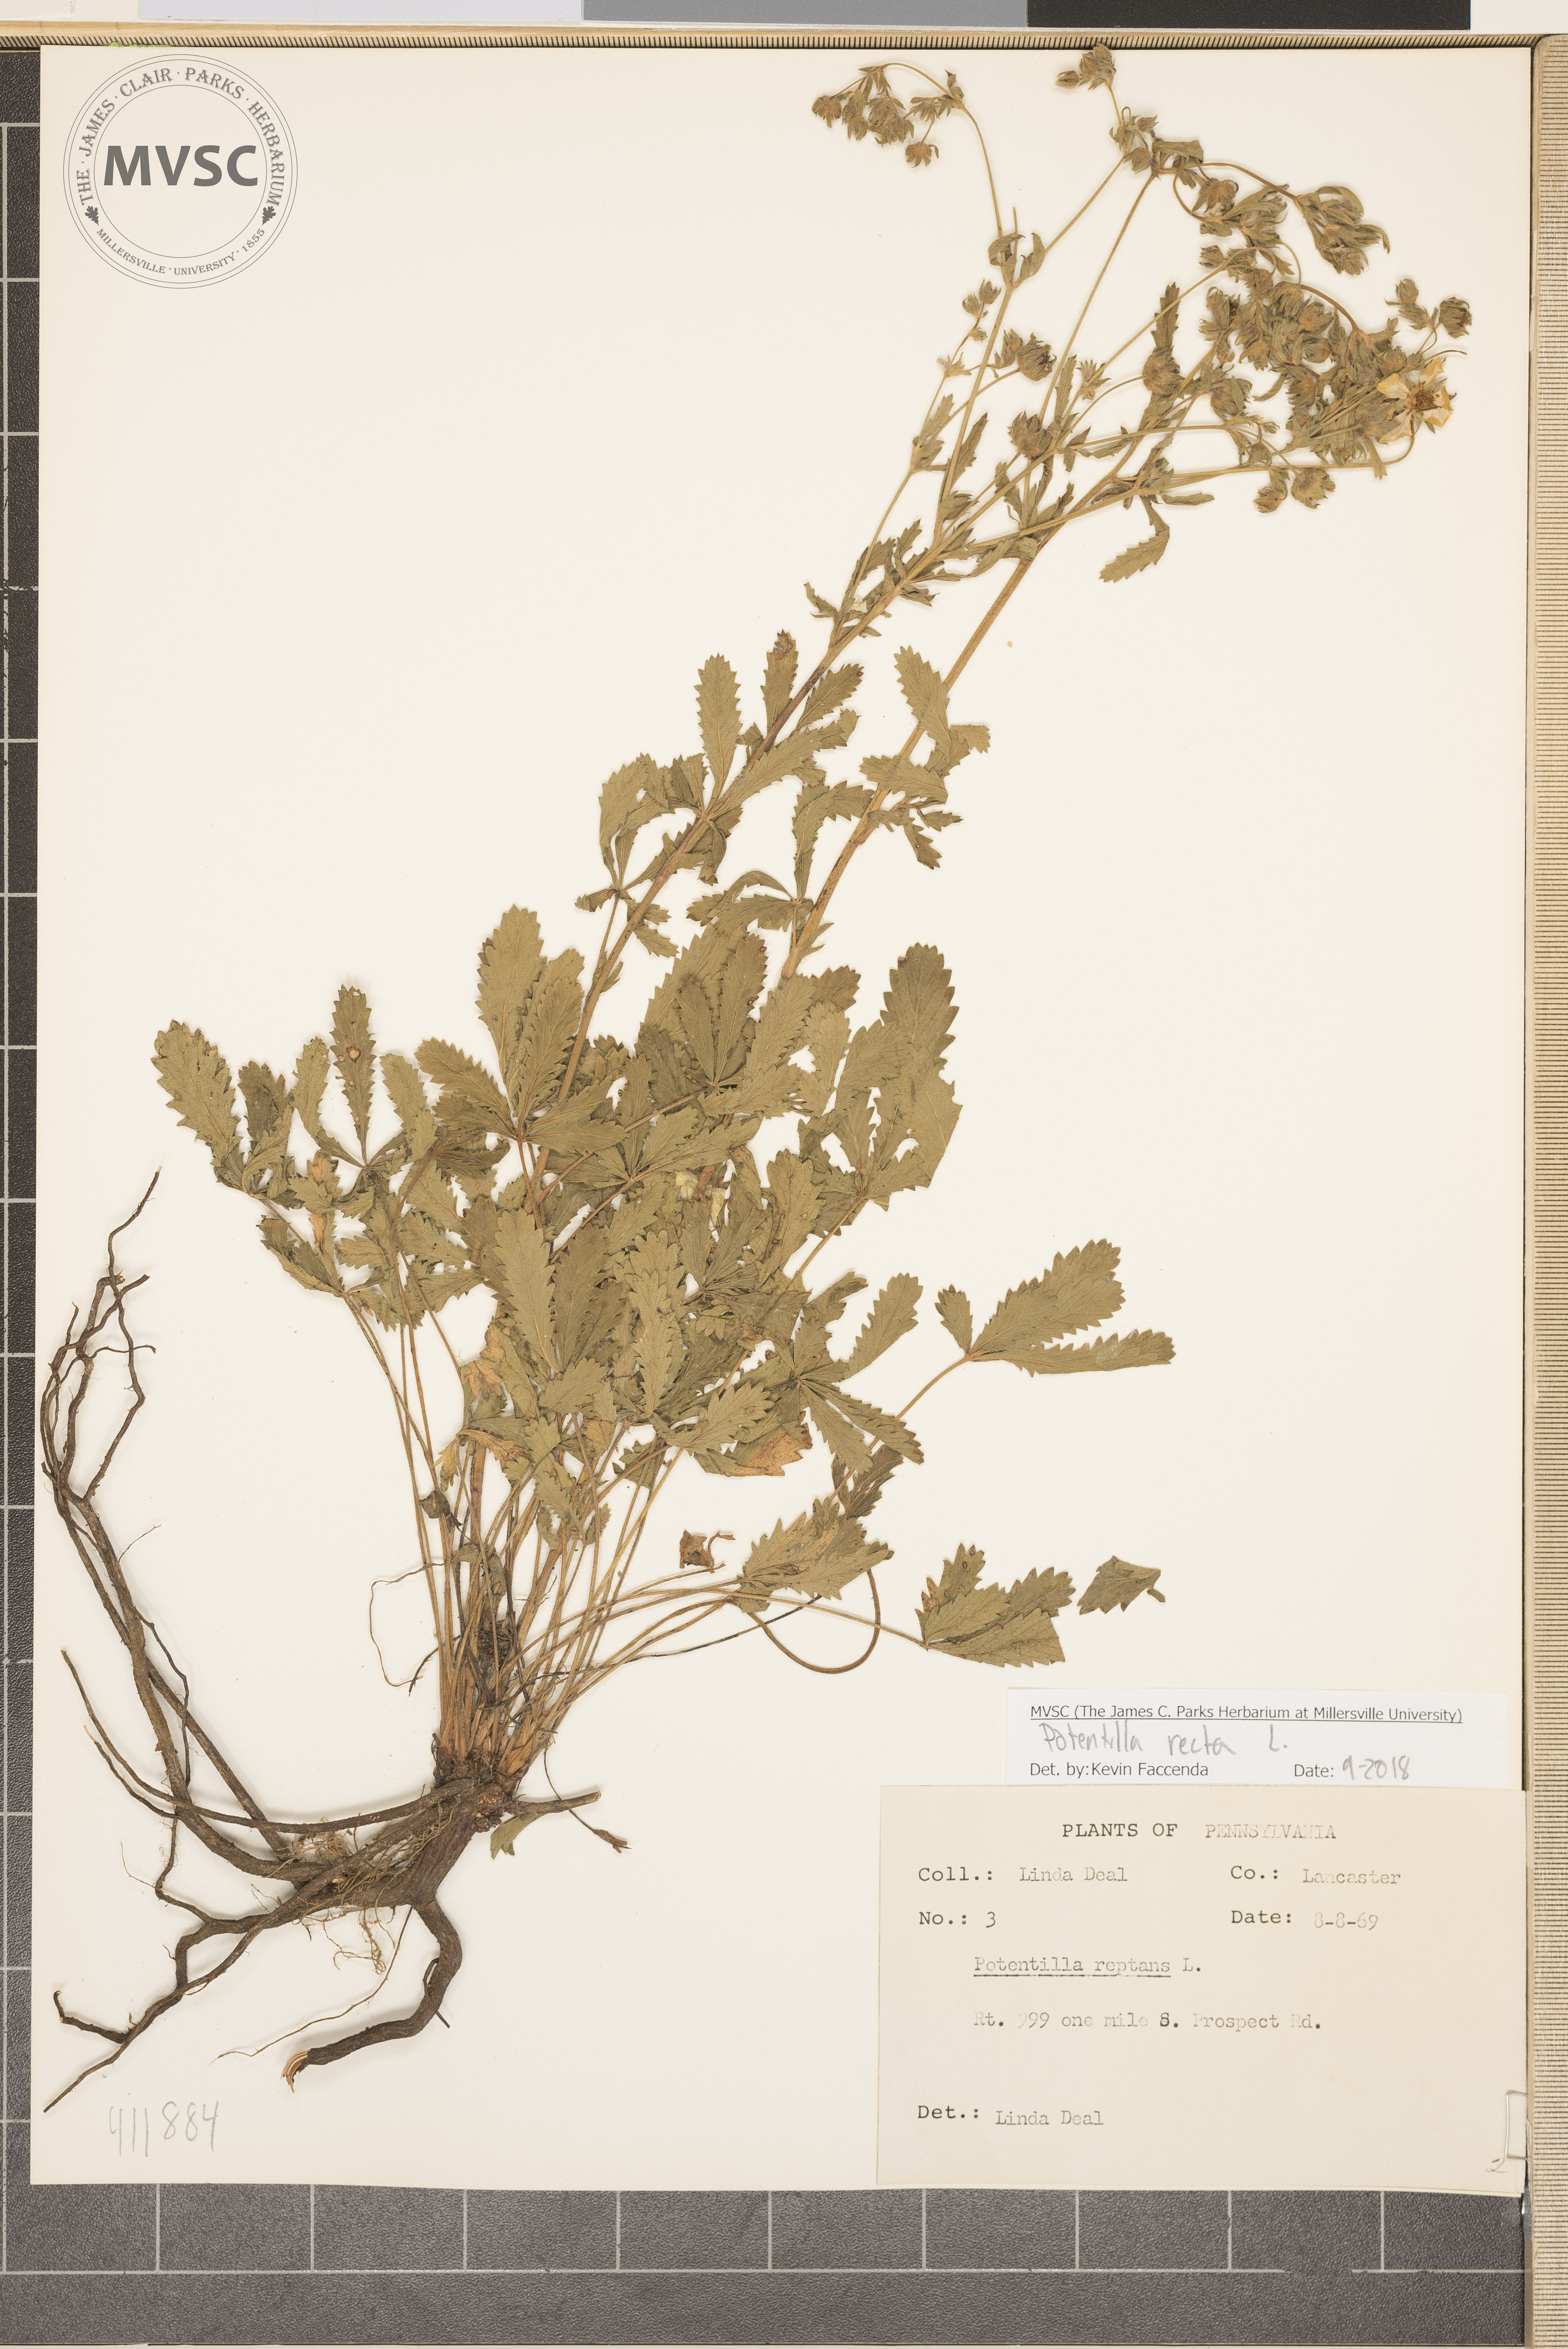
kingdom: Plantae
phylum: Tracheophyta
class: Magnoliopsida
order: Rosales
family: Rosaceae
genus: Potentilla
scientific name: Potentilla recta
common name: Sulphur cinquefoil
